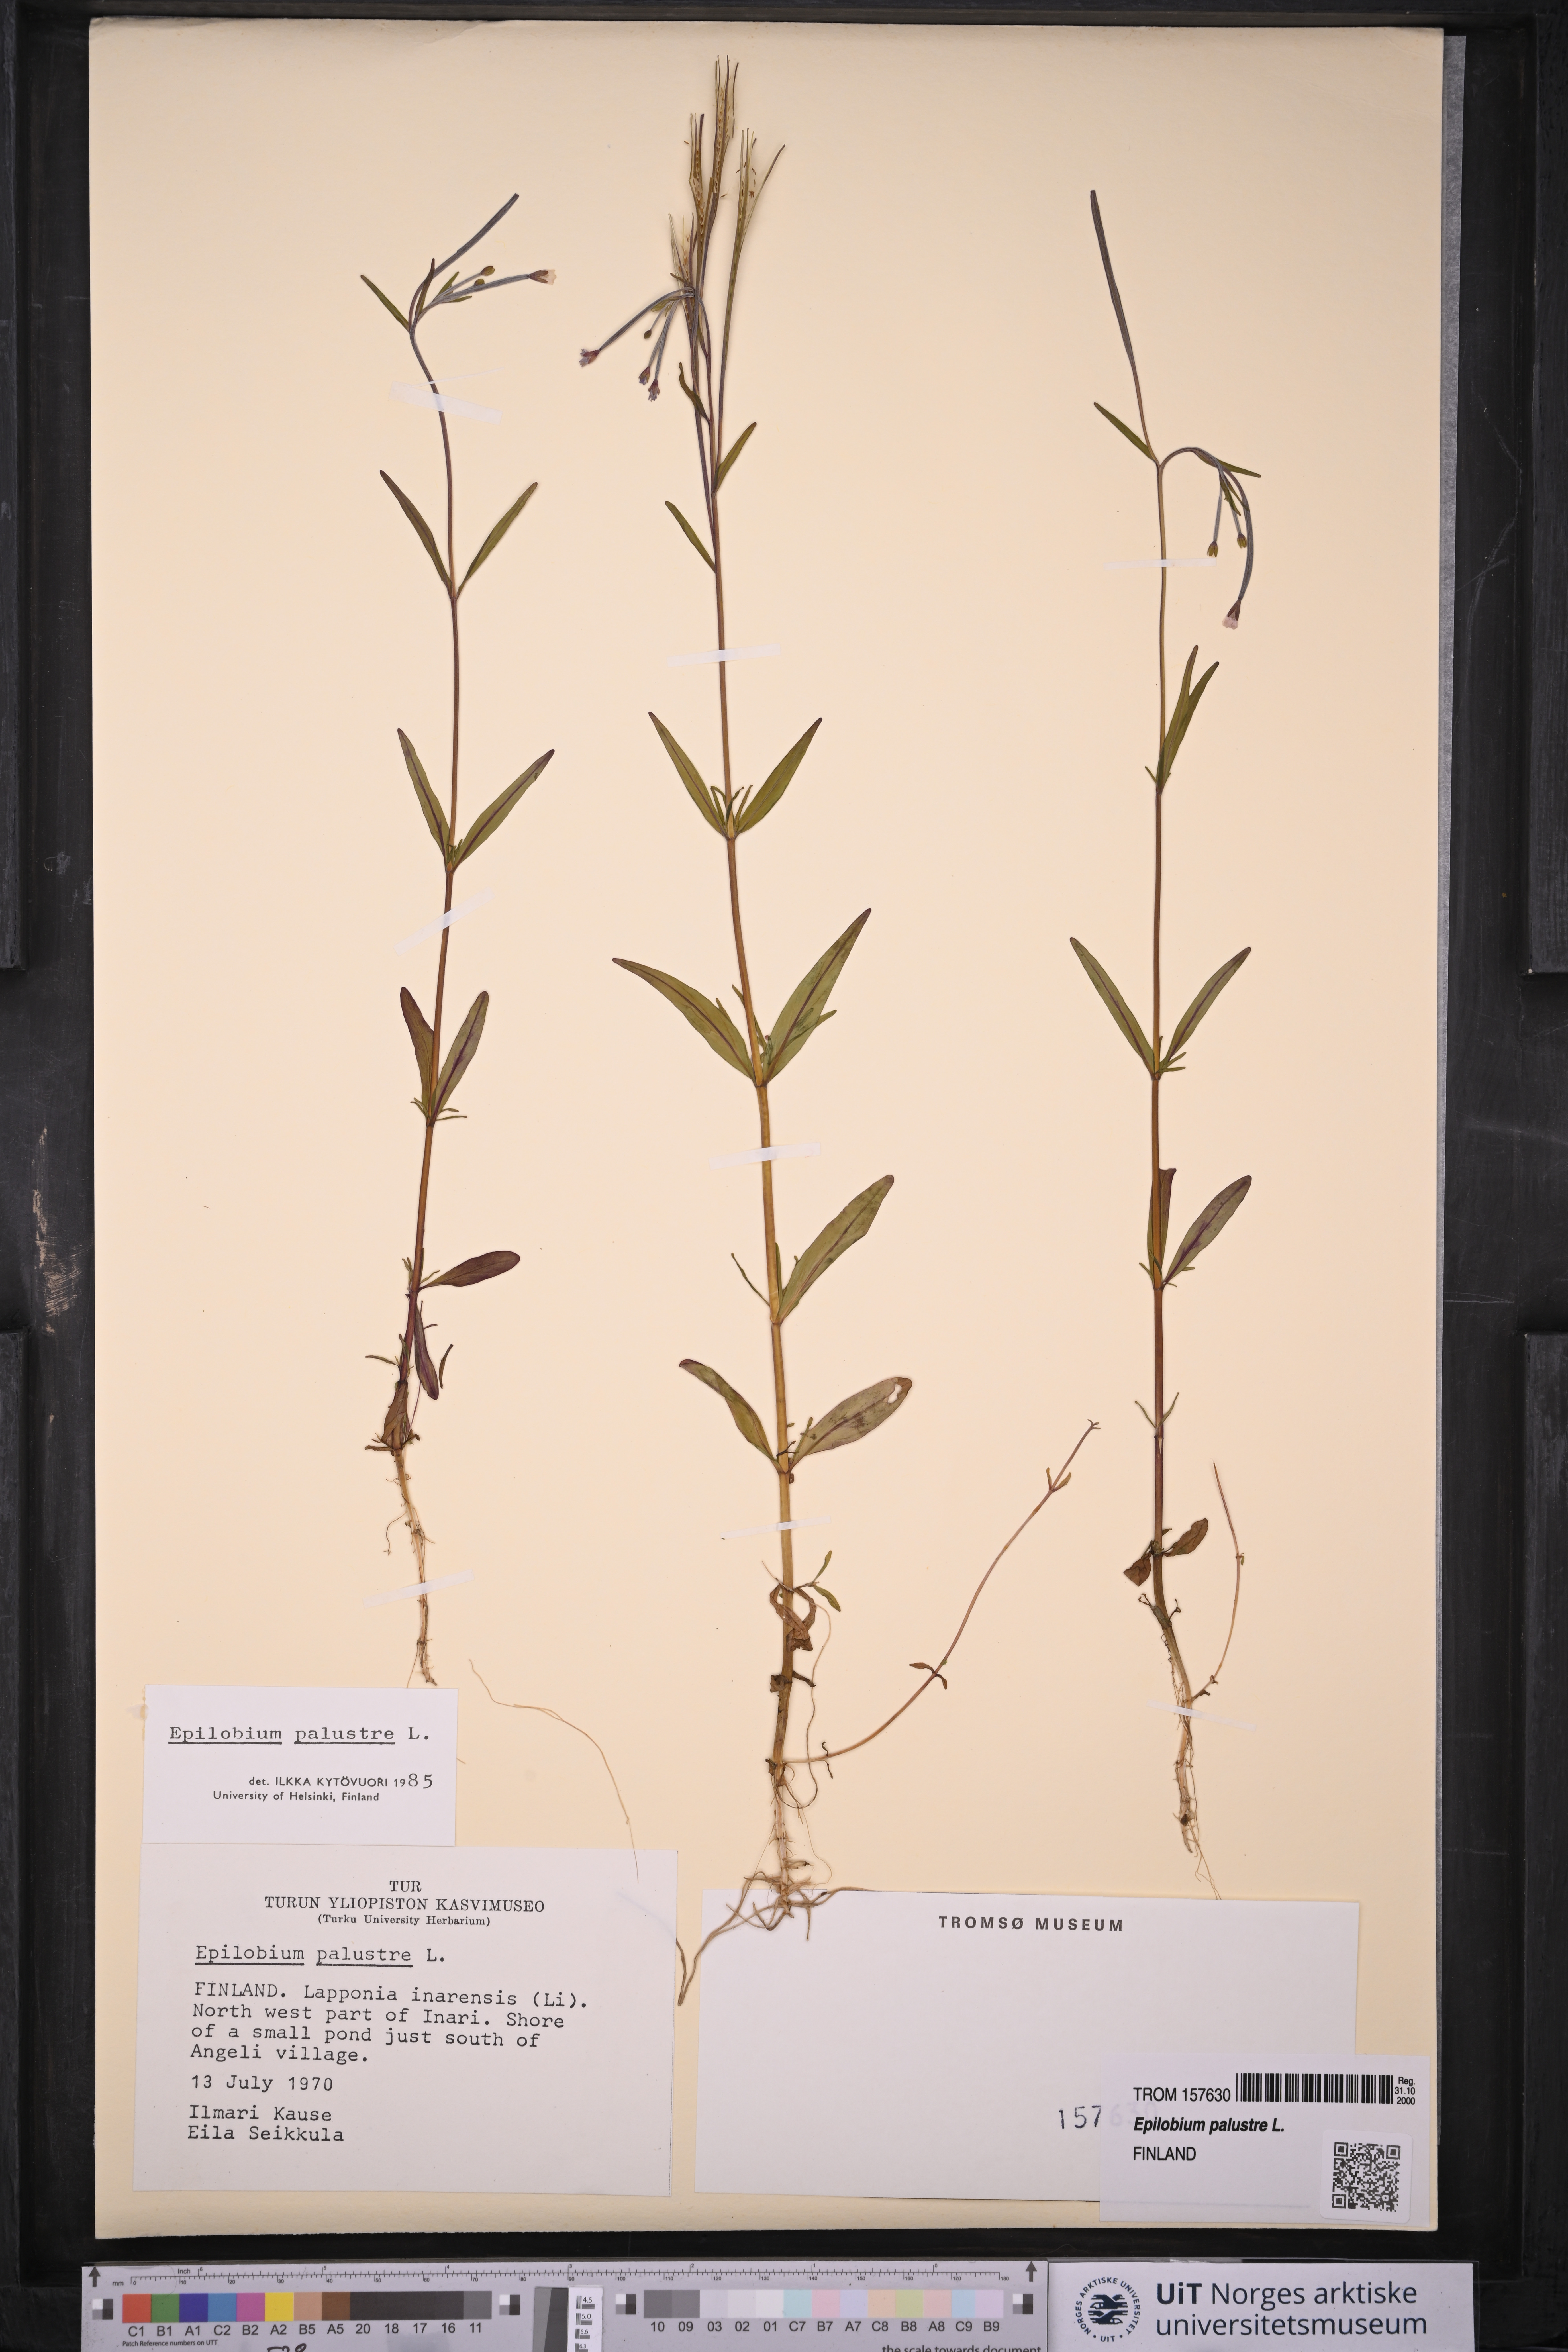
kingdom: Plantae
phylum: Tracheophyta
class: Magnoliopsida
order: Myrtales
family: Onagraceae
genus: Epilobium
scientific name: Epilobium palustre
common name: Marsh willowherb
